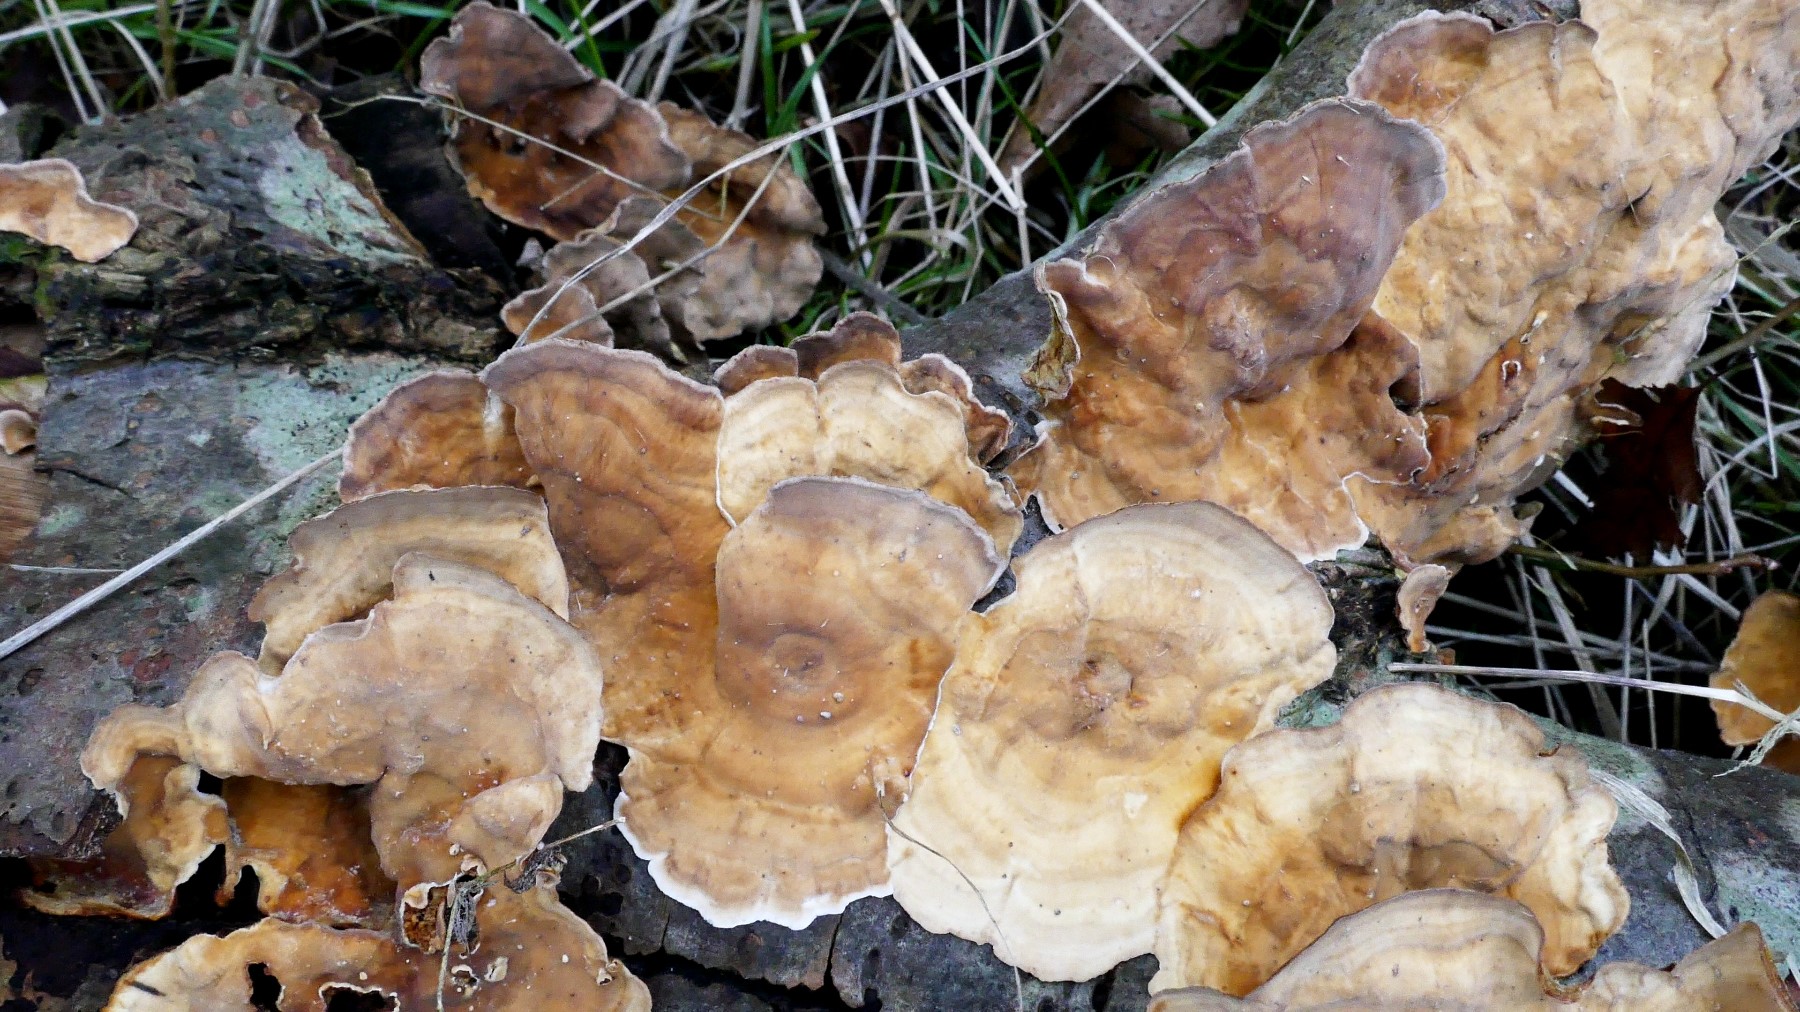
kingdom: Fungi
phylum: Basidiomycota
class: Agaricomycetes
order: Russulales
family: Stereaceae
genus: Stereum
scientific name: Stereum subtomentosum
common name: smuk lædersvamp
